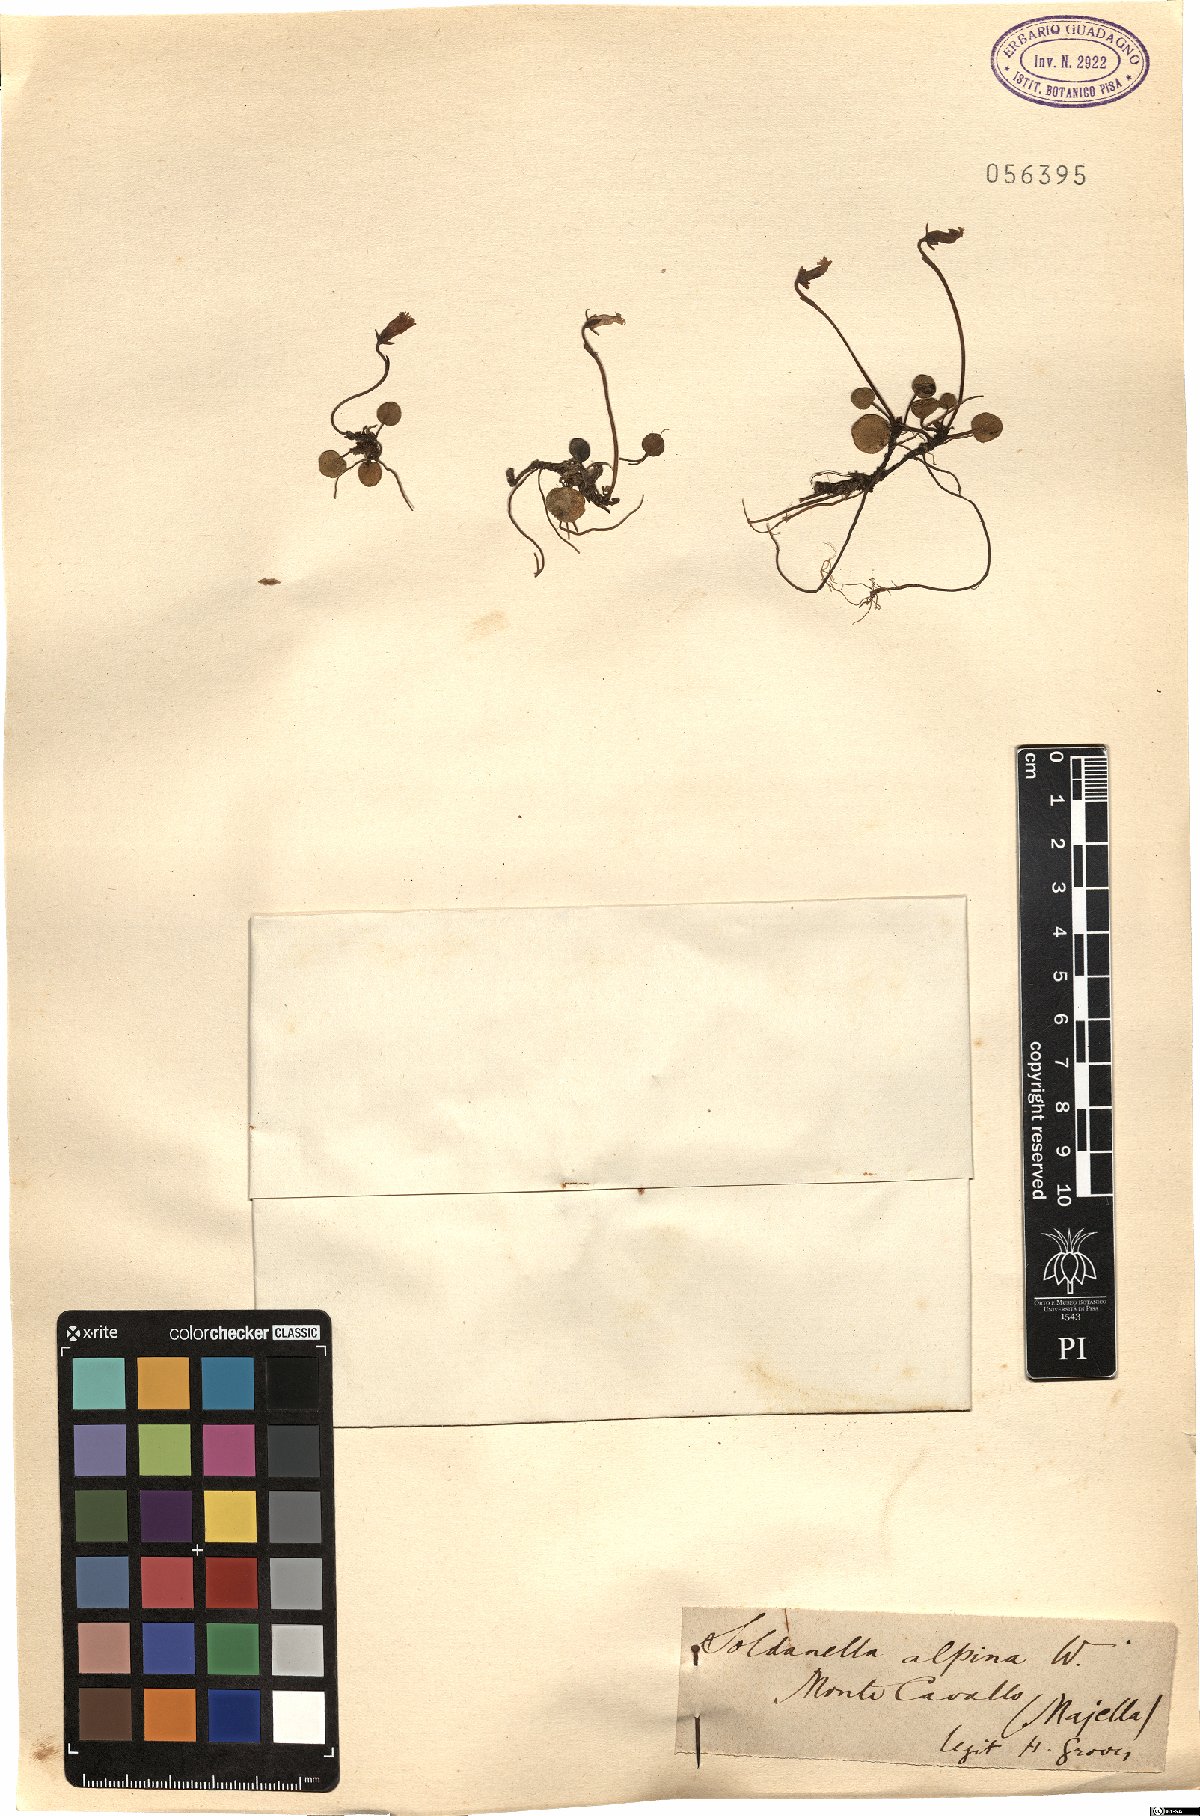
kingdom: Plantae
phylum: Tracheophyta
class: Magnoliopsida
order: Ericales
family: Primulaceae
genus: Soldanella
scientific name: Soldanella alpina
